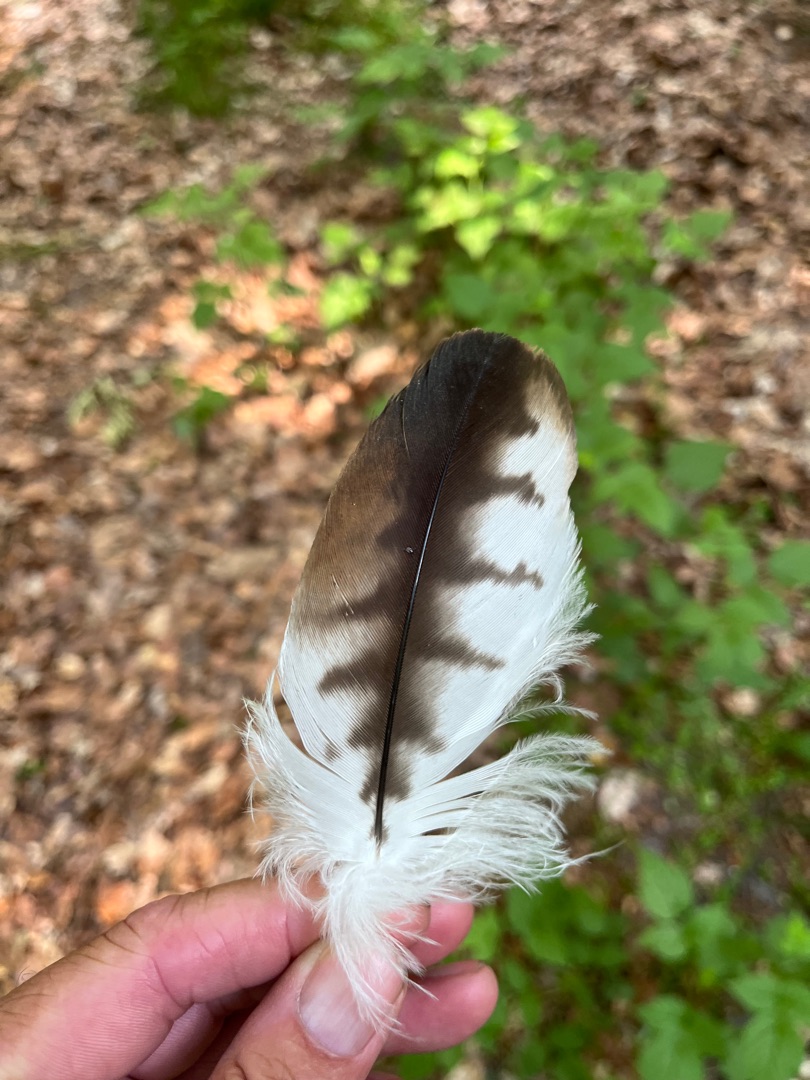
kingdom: Animalia
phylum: Chordata
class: Aves
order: Accipitriformes
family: Accipitridae
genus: Milvus
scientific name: Milvus milvus
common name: Rød glente
